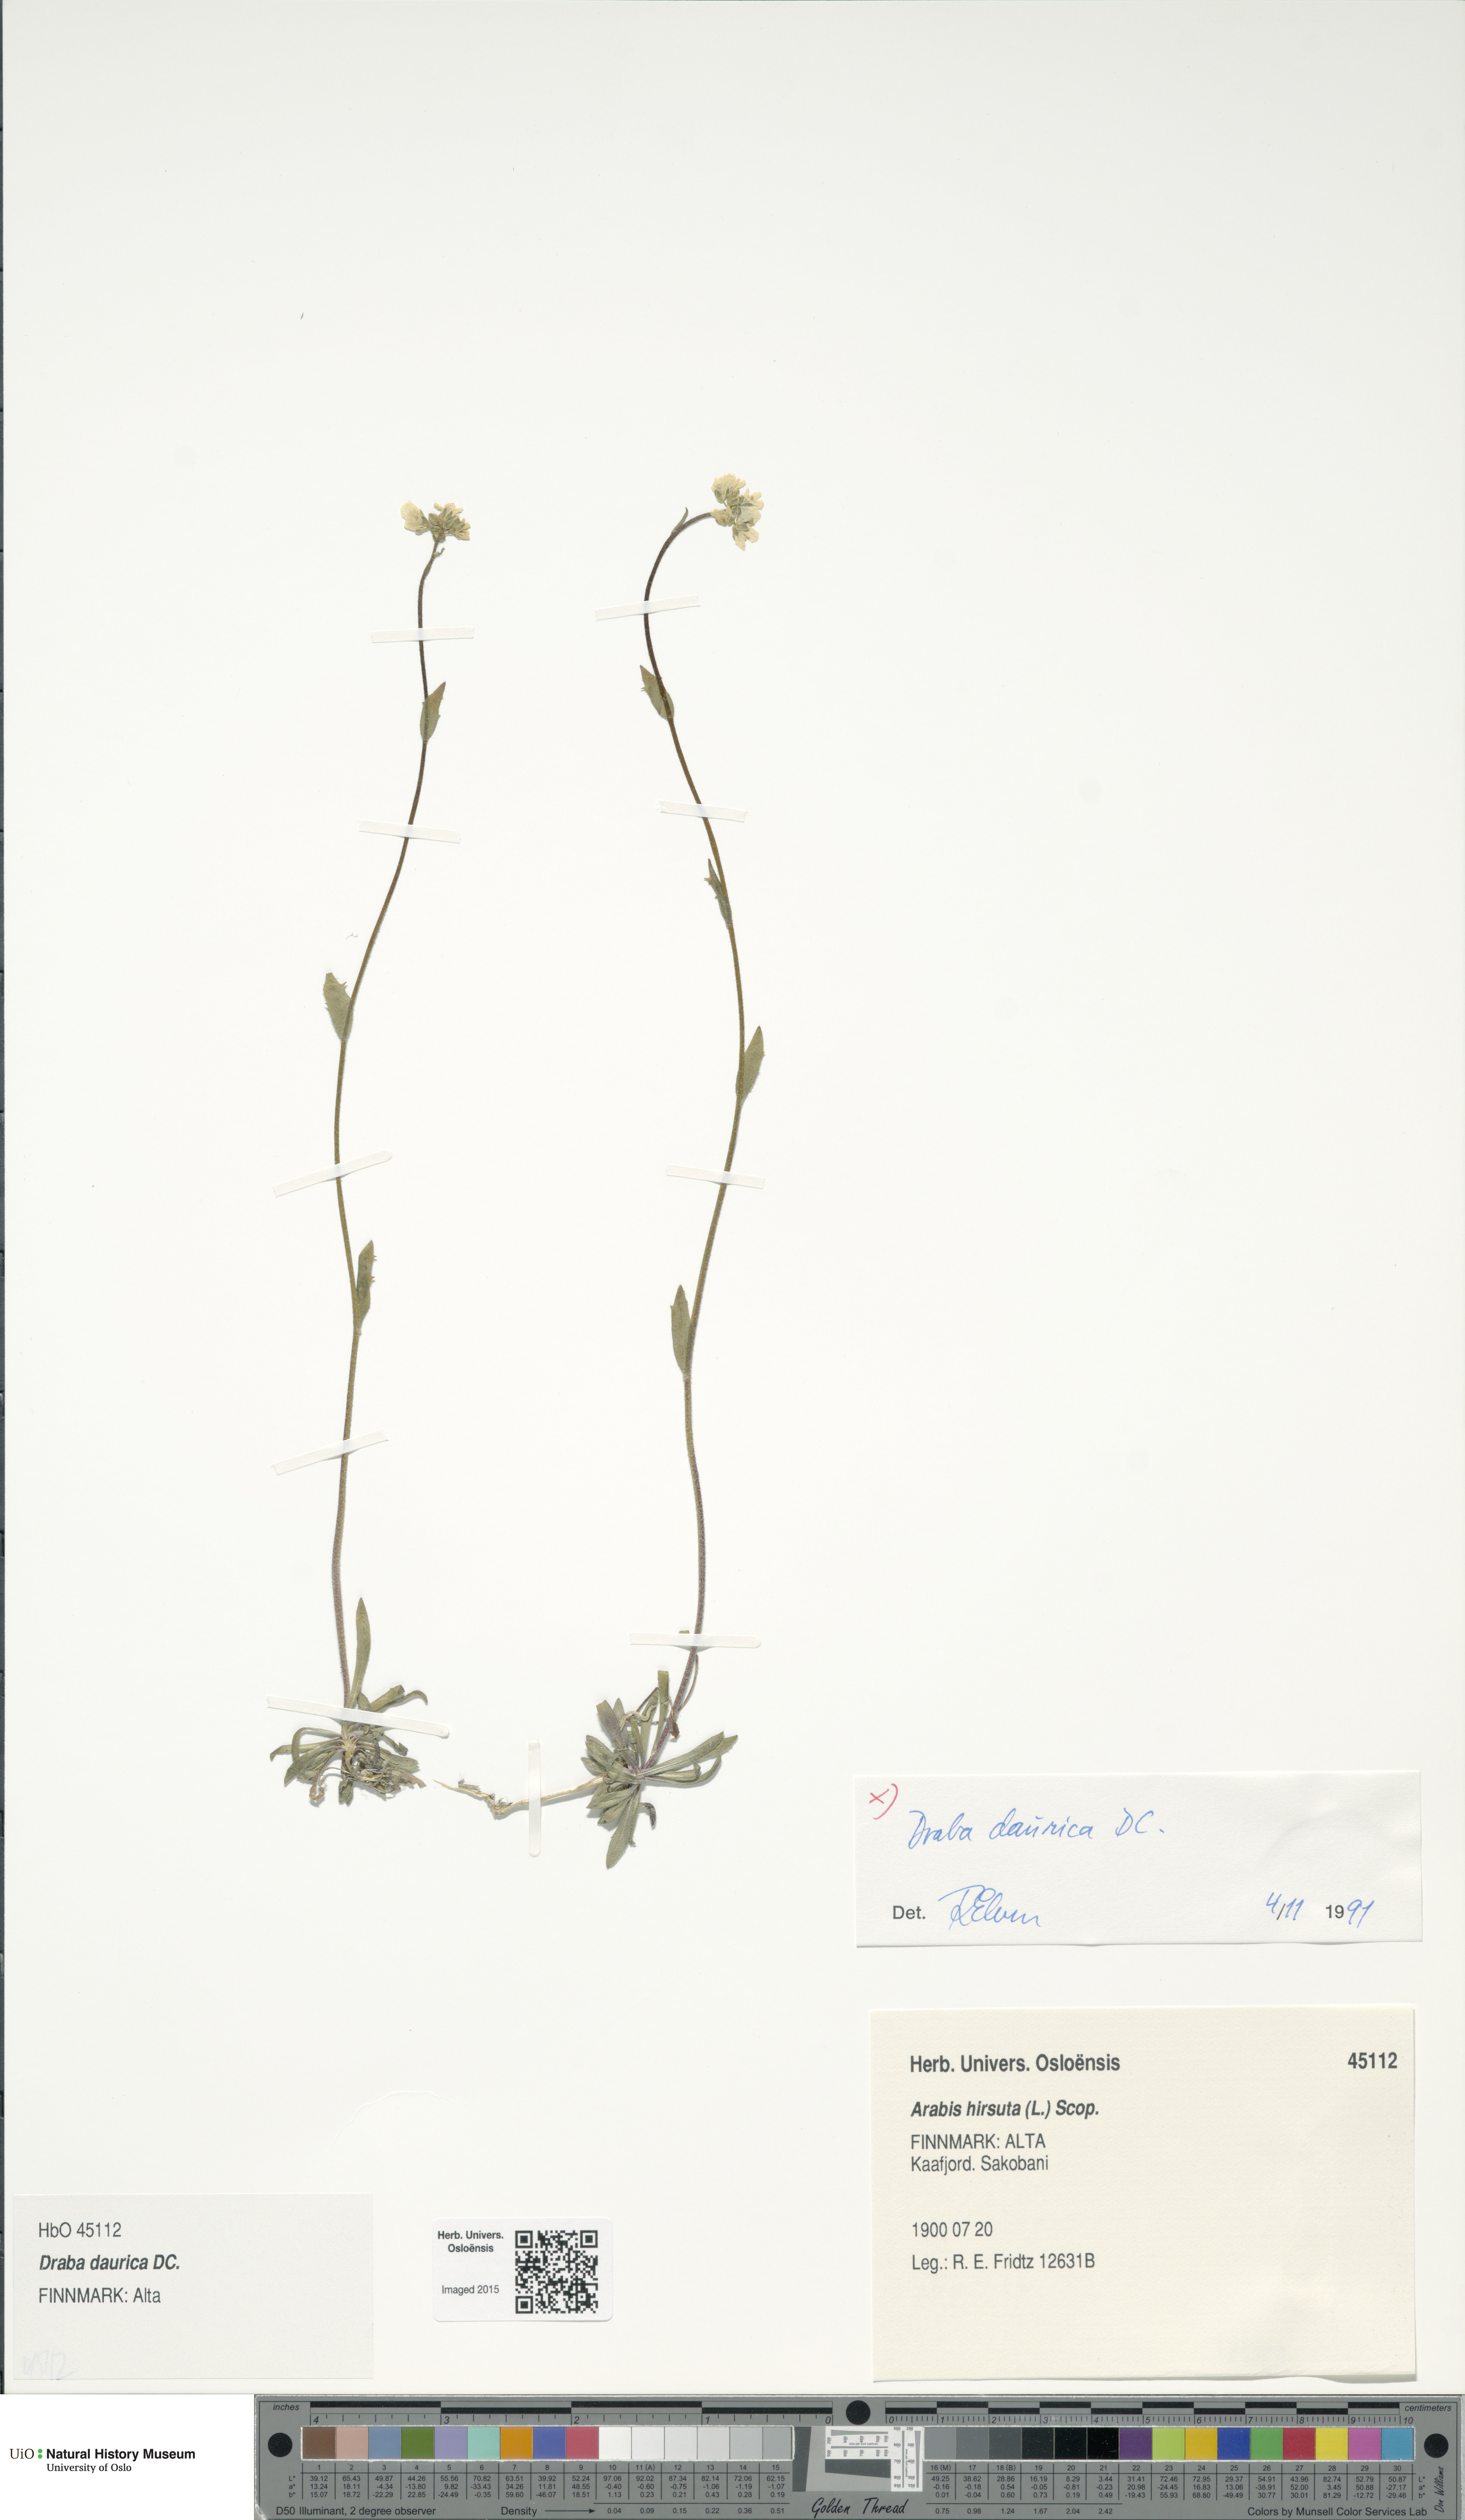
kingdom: Plantae
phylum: Tracheophyta
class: Magnoliopsida
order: Brassicales
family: Brassicaceae
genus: Draba
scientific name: Draba glabella
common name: Glaucous draba
